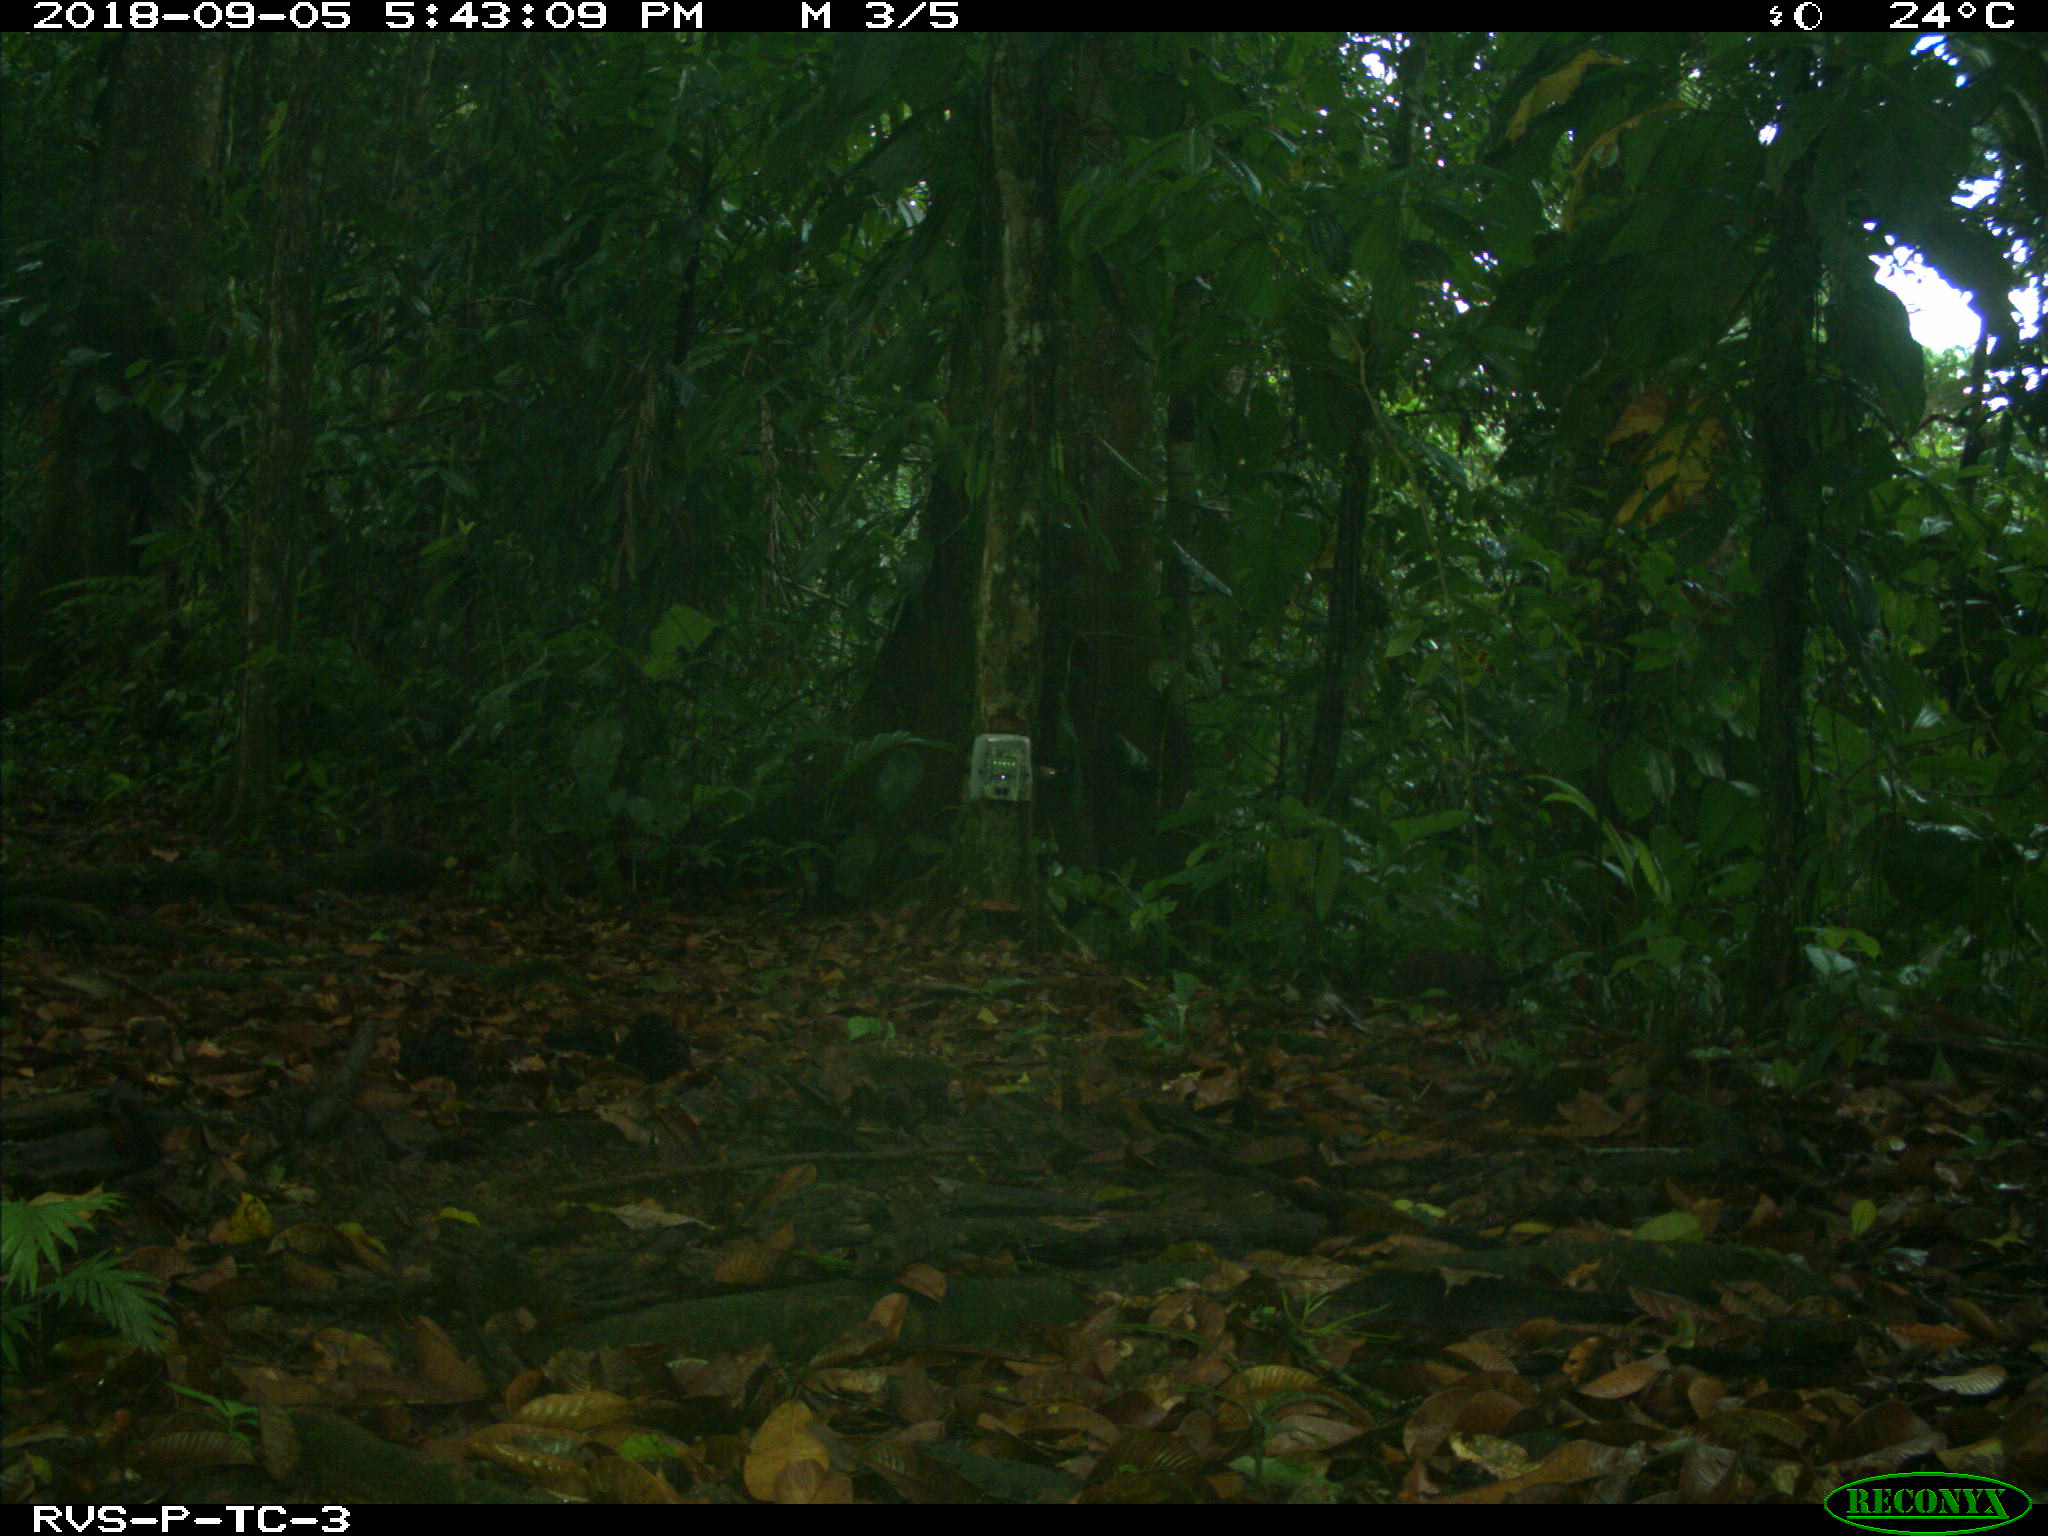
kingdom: Animalia
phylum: Chordata
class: Mammalia
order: Rodentia
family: Dasyproctidae
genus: Dasyprocta
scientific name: Dasyprocta punctata
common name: Central american agouti
